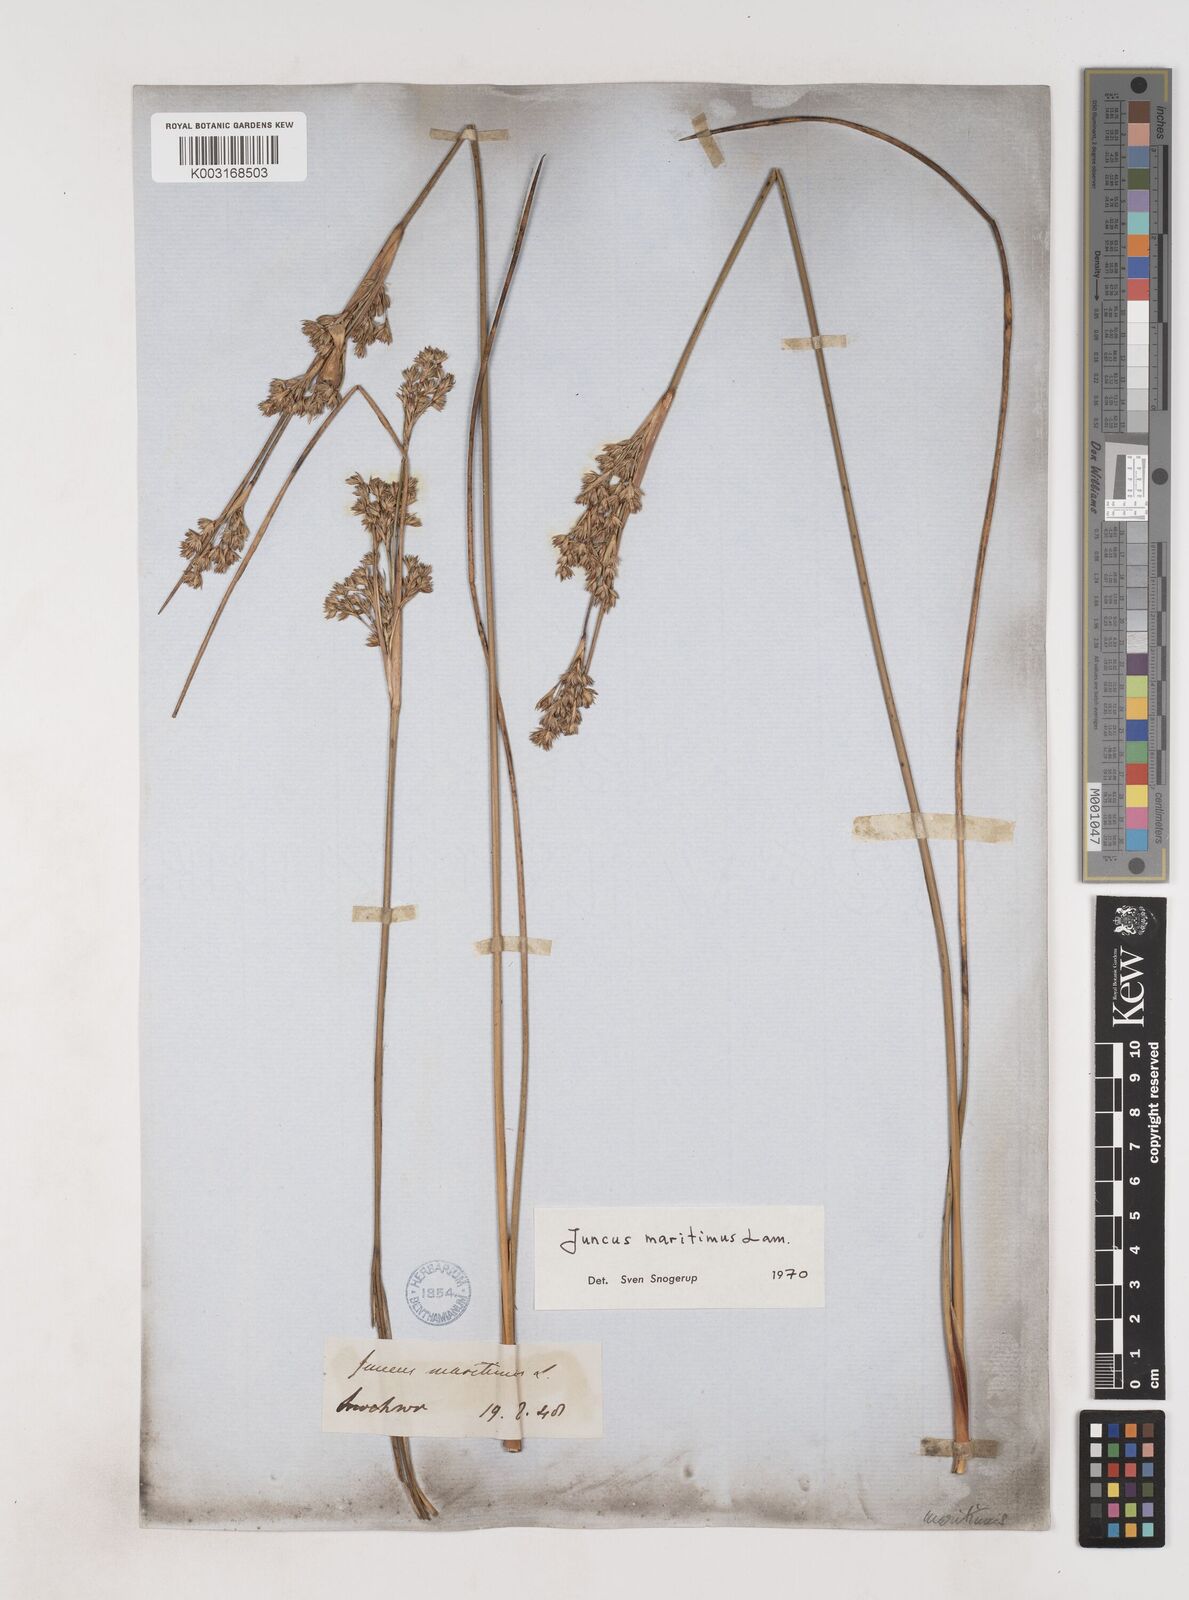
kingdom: Plantae
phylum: Tracheophyta
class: Liliopsida
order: Poales
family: Juncaceae
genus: Juncus
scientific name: Juncus maritimus
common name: Sea rush
